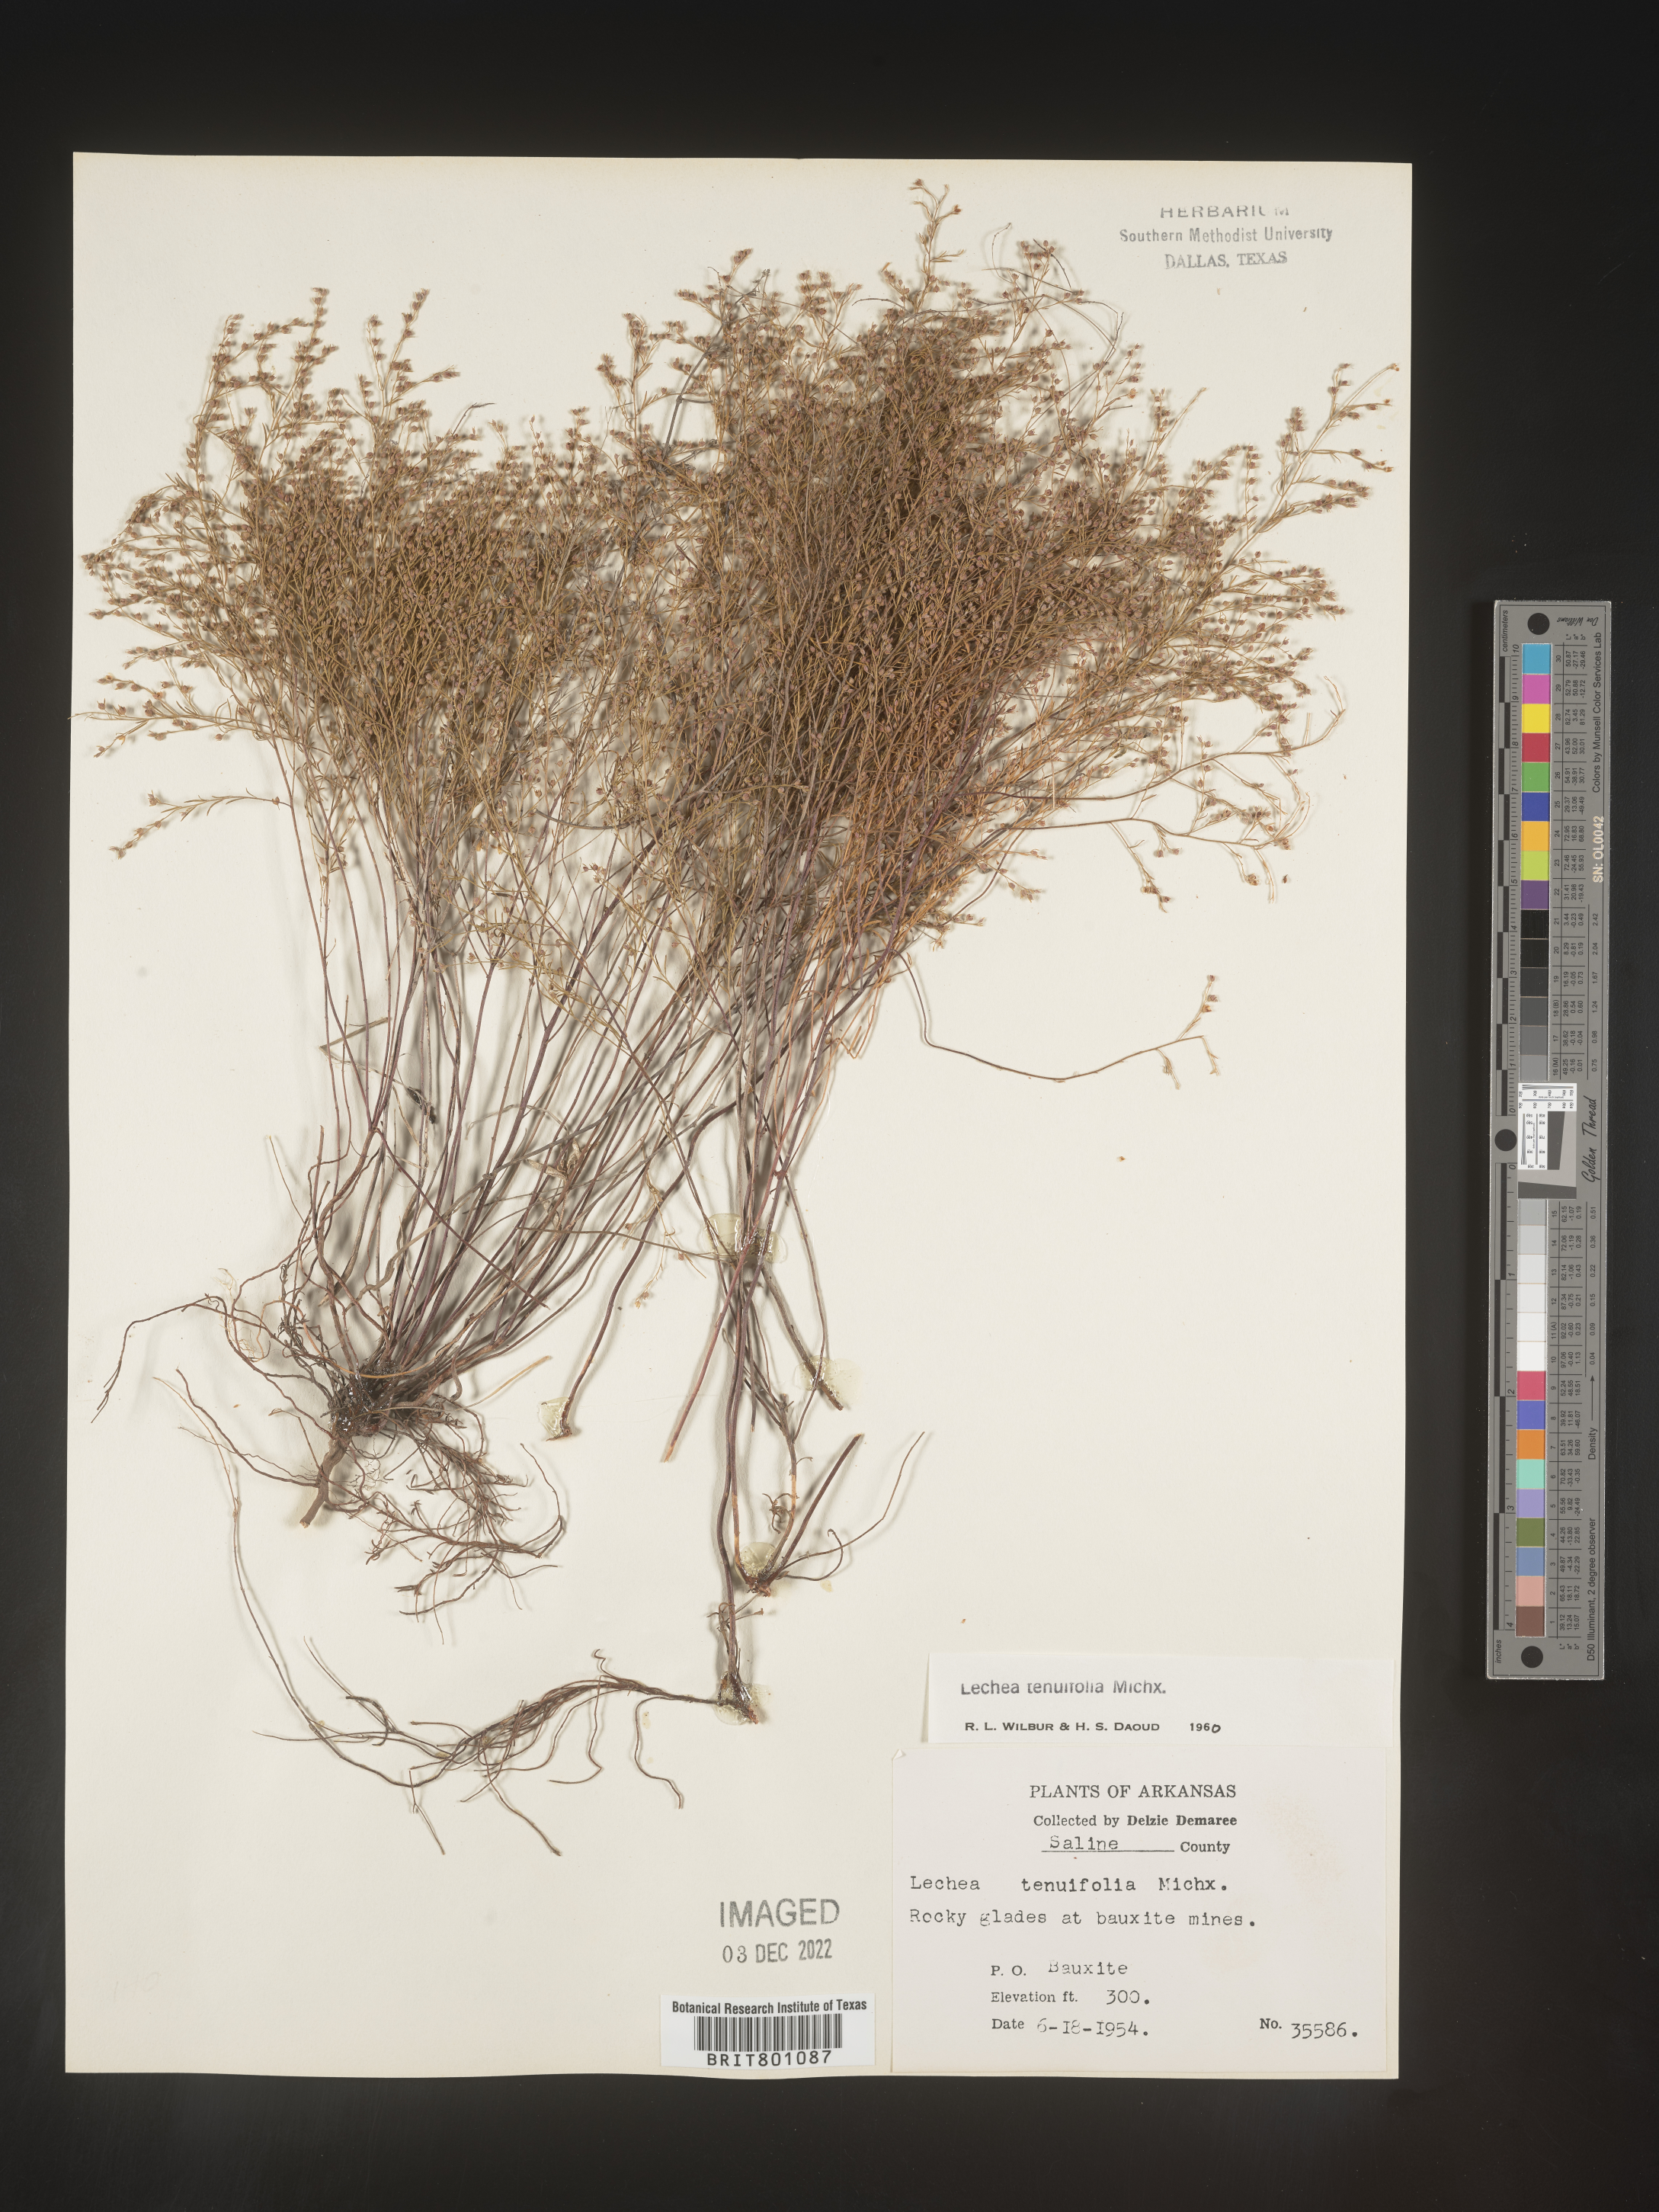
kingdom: Plantae
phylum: Tracheophyta
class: Magnoliopsida
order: Malvales
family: Cistaceae
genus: Lechea
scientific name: Lechea tenuifolia
